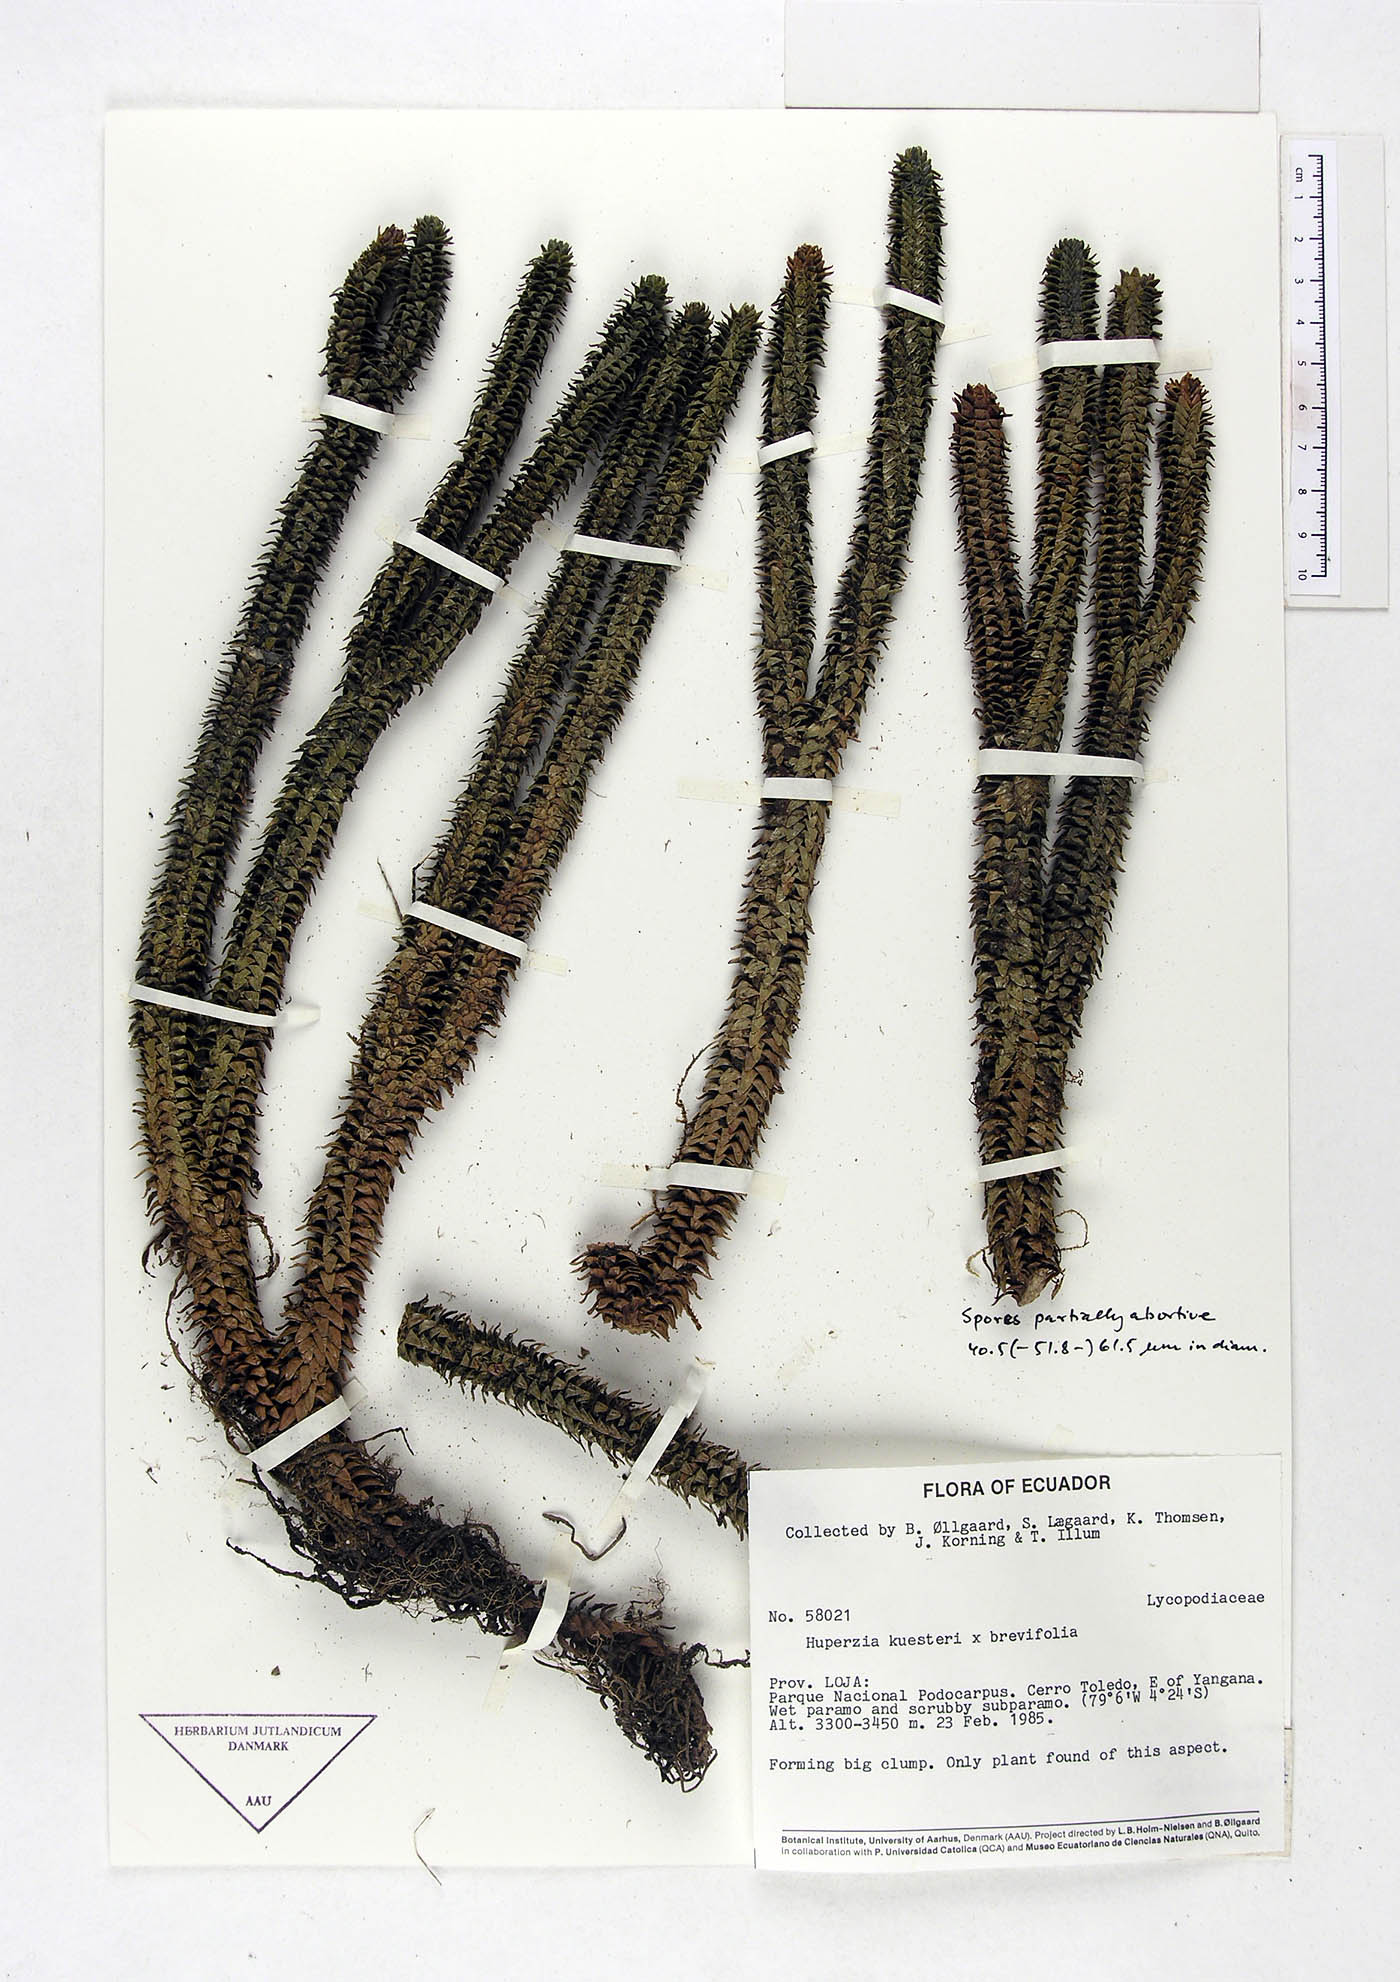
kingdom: Plantae
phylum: Tracheophyta
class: Lycopodiopsida
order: Lycopodiales
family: Lycopodiaceae
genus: Phlegmariurus
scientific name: Phlegmariurus kuesteri
